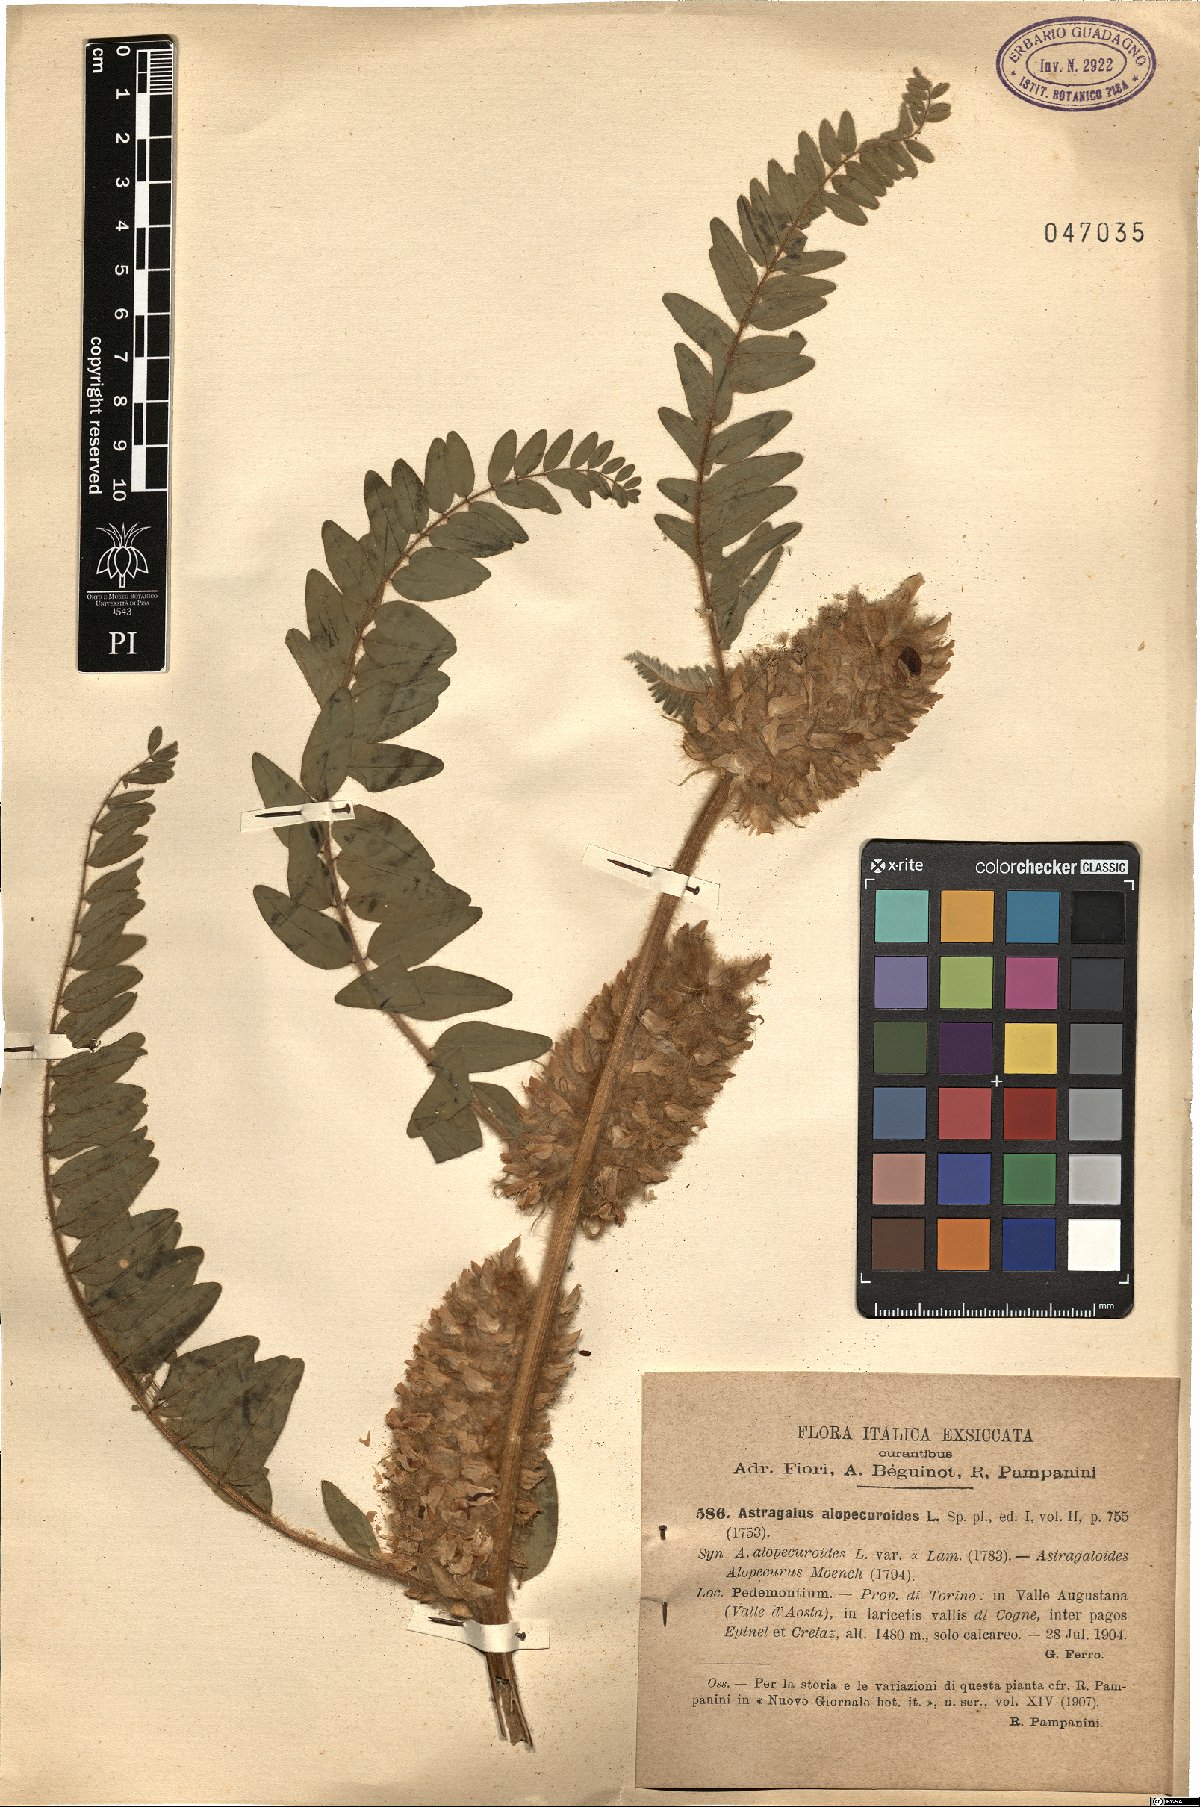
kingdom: Plantae
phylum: Tracheophyta
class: Magnoliopsida
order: Fabales
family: Fabaceae
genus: Astragalus
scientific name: Astragalus alopecuroides
